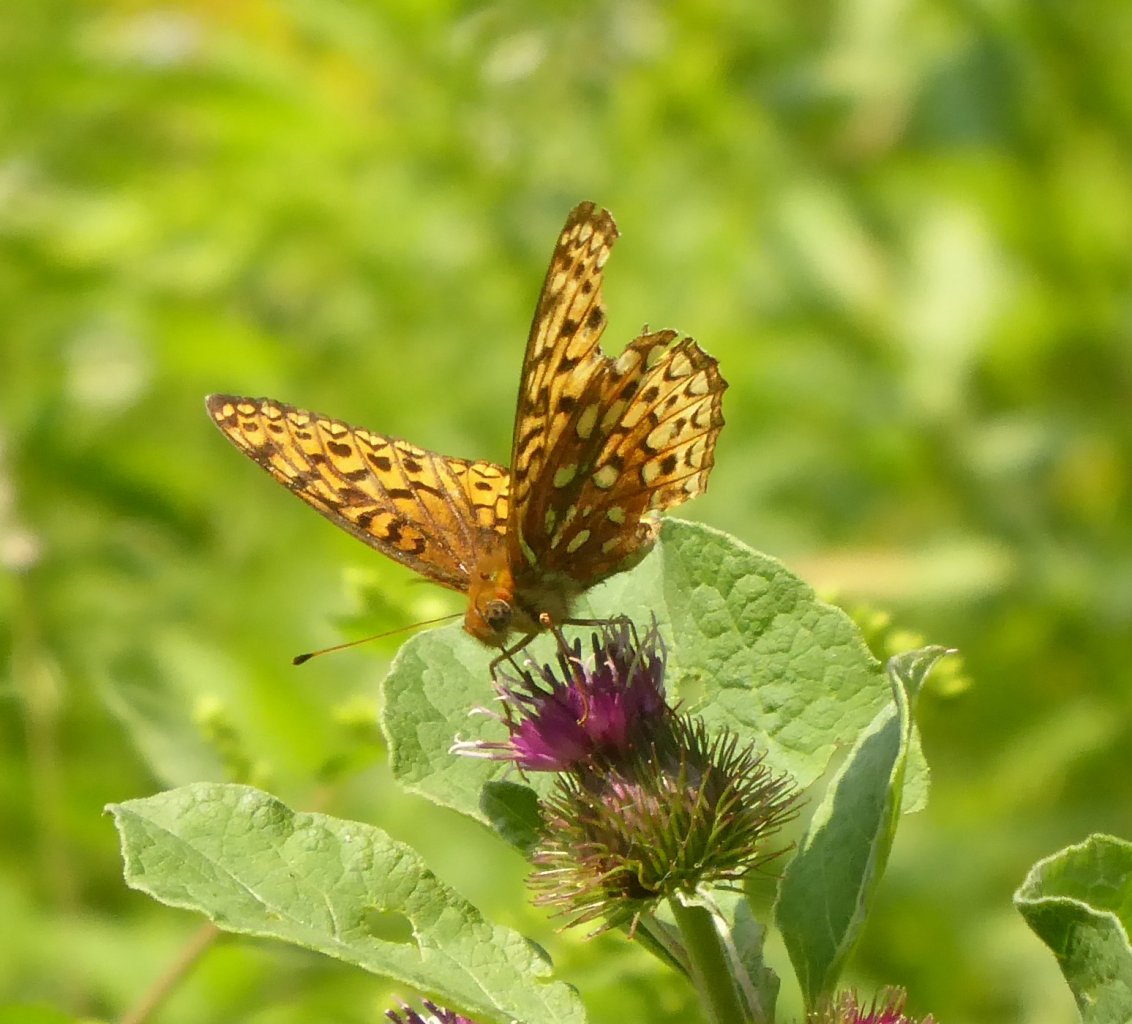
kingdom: Animalia
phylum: Arthropoda
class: Insecta
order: Lepidoptera
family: Nymphalidae
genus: Speyeria
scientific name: Speyeria atlantis
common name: Atlantis Fritillary
